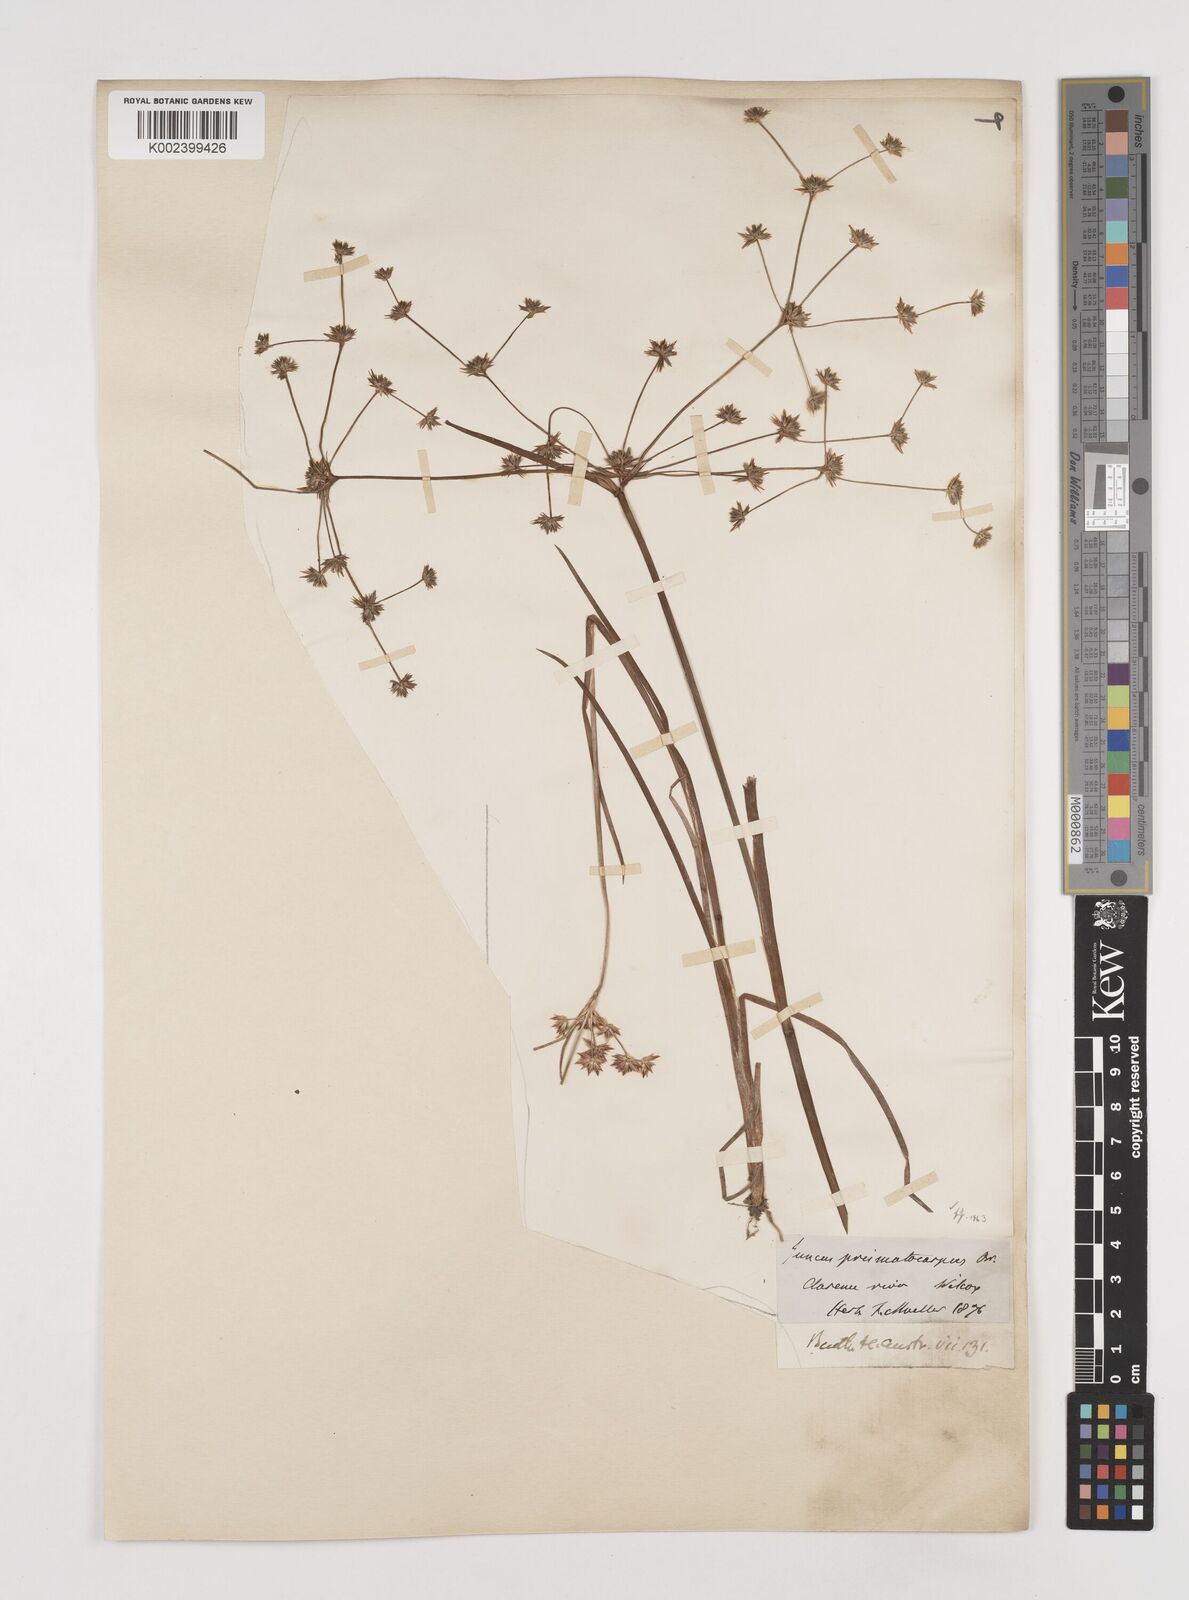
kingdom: Plantae
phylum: Tracheophyta
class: Liliopsida
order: Poales
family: Juncaceae
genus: Juncus
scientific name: Juncus prismatocarpus
